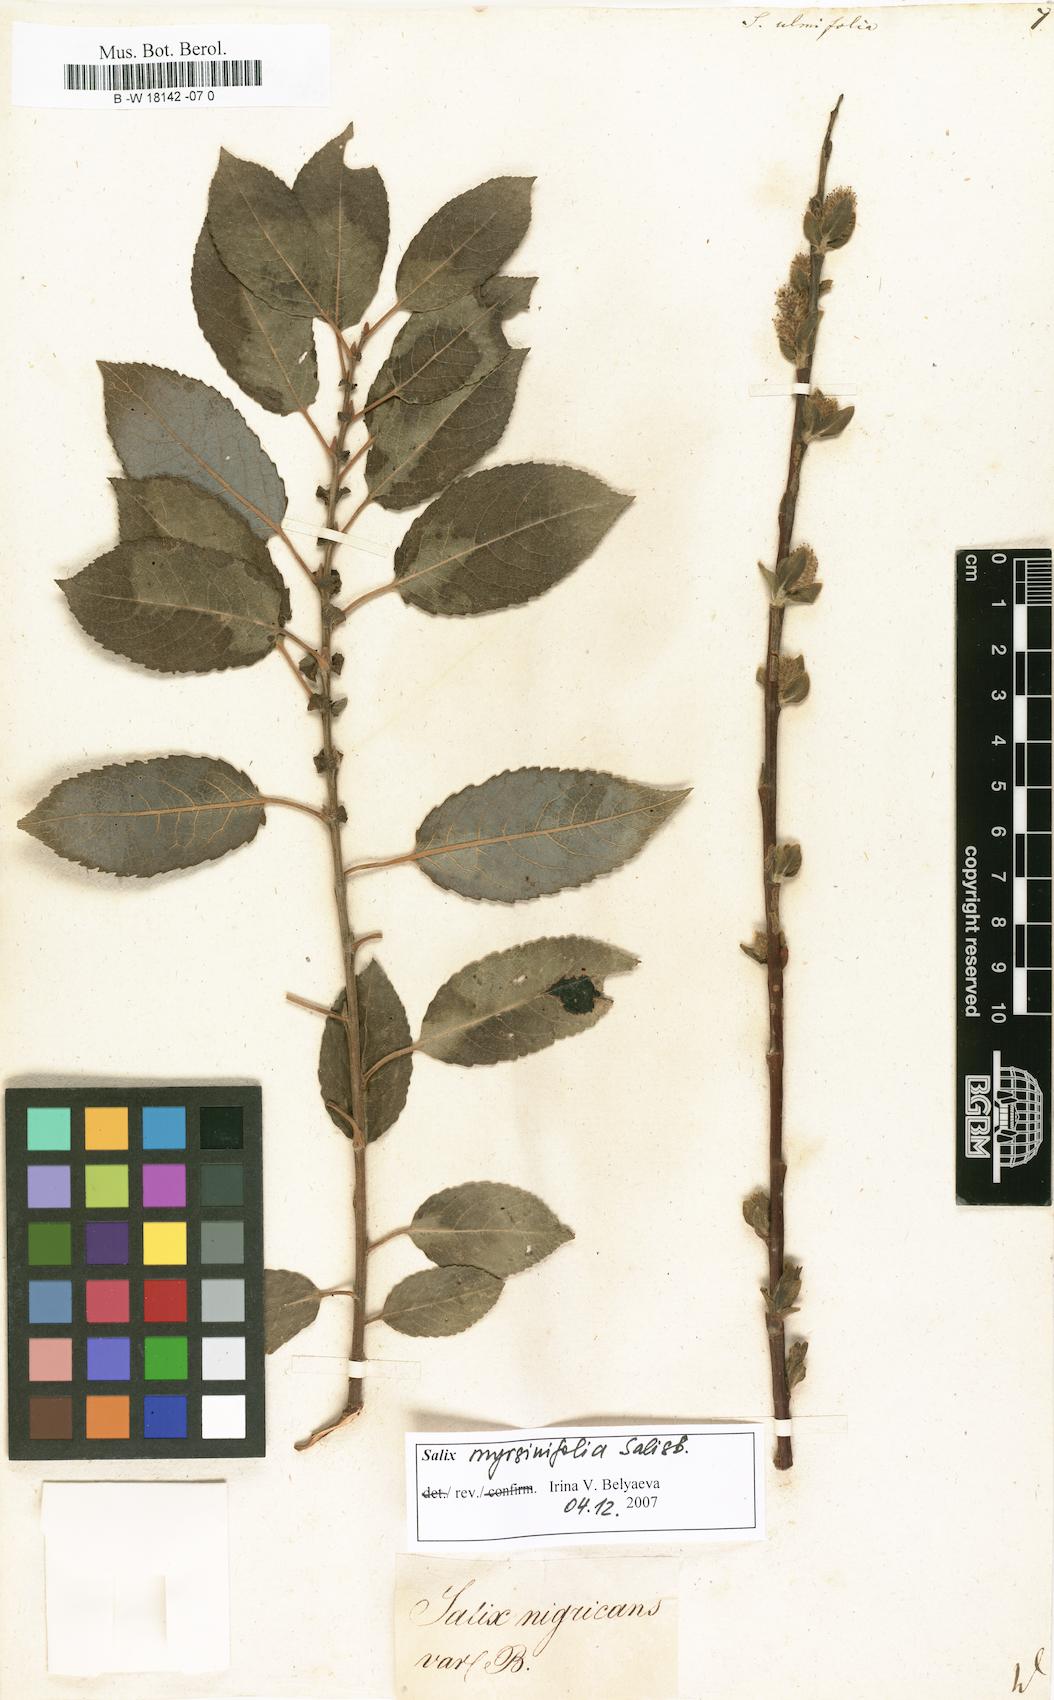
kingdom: Plantae
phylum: Tracheophyta
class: Magnoliopsida
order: Malpighiales
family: Salicaceae
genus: Salix
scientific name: Salix ulmifolia
